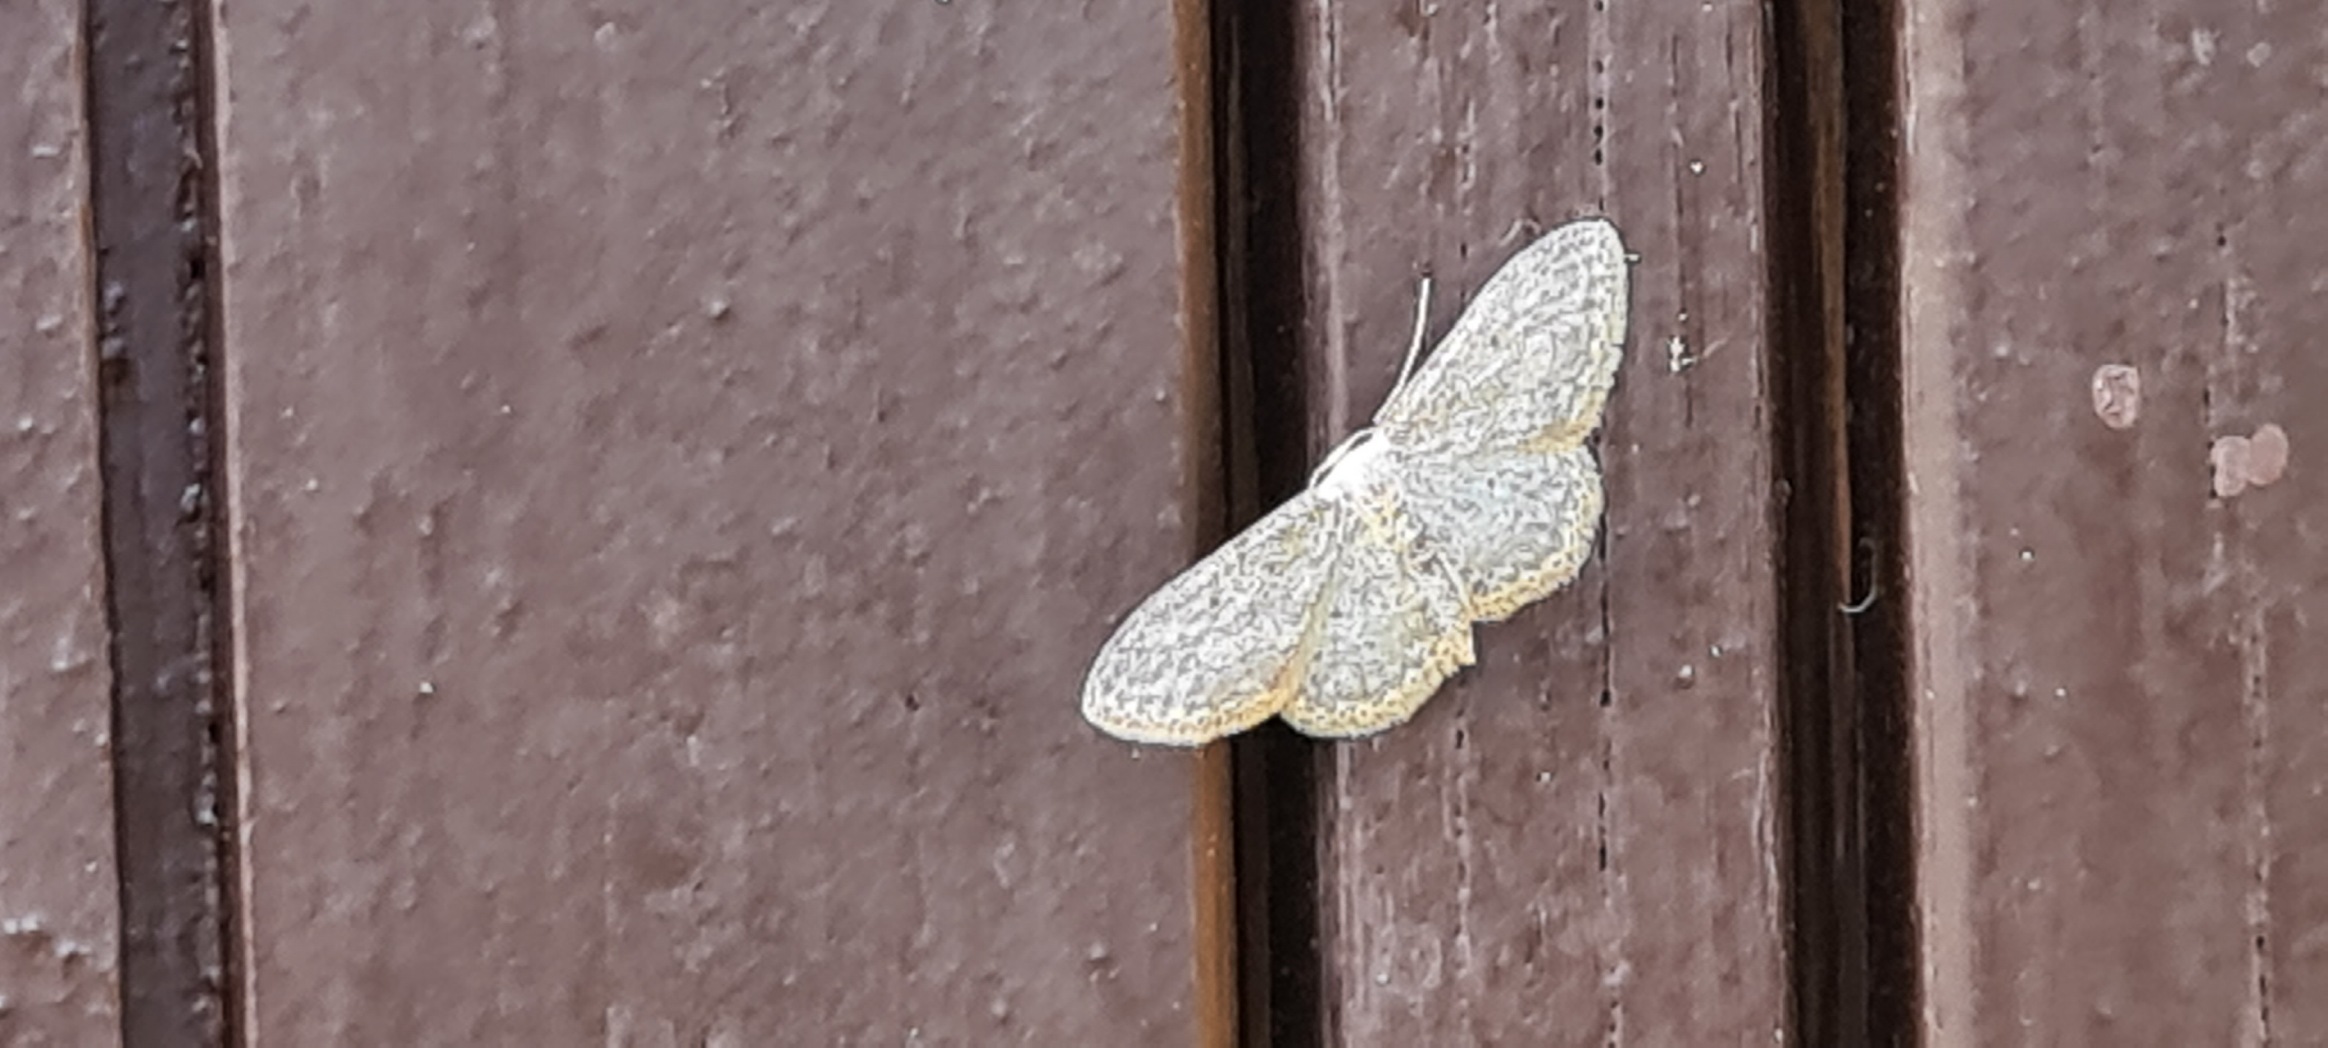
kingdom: Animalia
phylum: Arthropoda
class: Insecta
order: Lepidoptera
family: Geometridae
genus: Idaea
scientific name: Idaea seriata
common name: Gråplettet løvmåler
